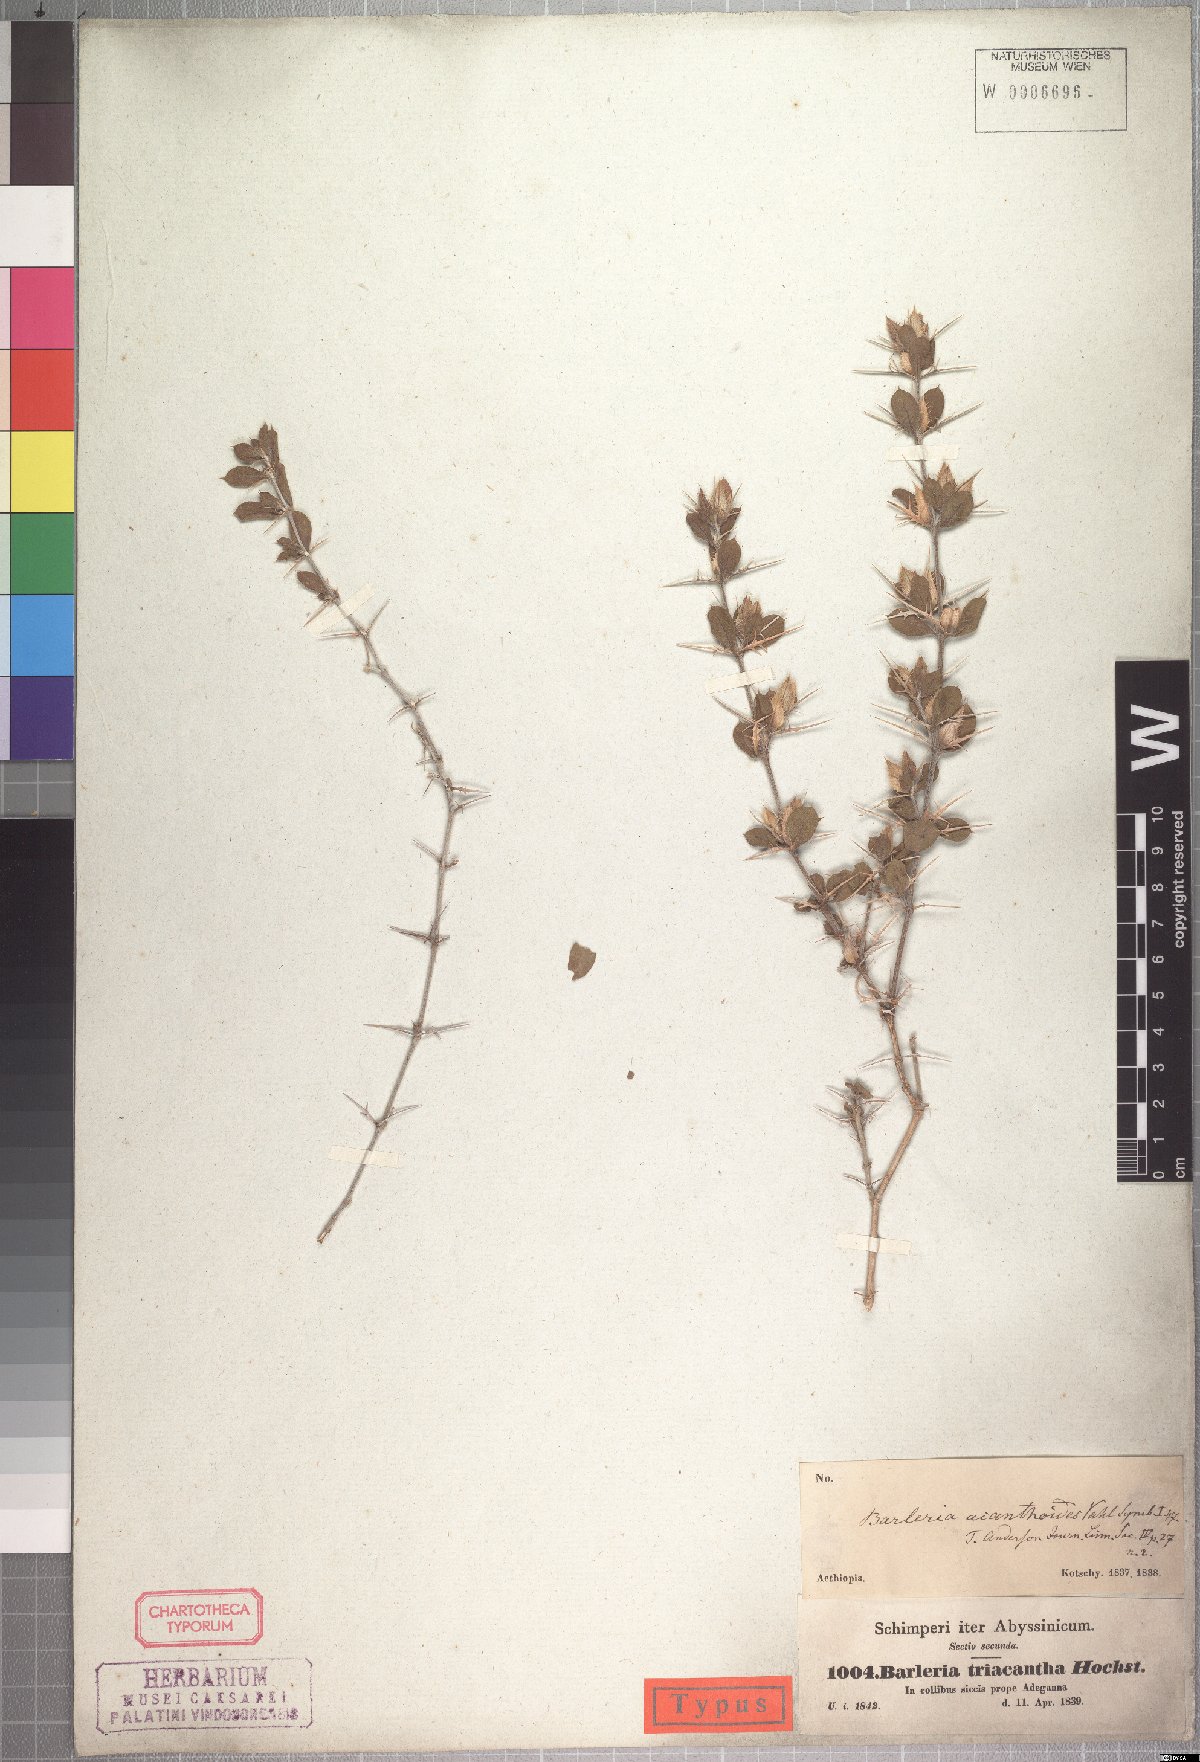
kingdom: Plantae
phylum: Tracheophyta
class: Magnoliopsida
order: Lamiales
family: Acanthaceae
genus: Barleria
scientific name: Barleria lanceata
